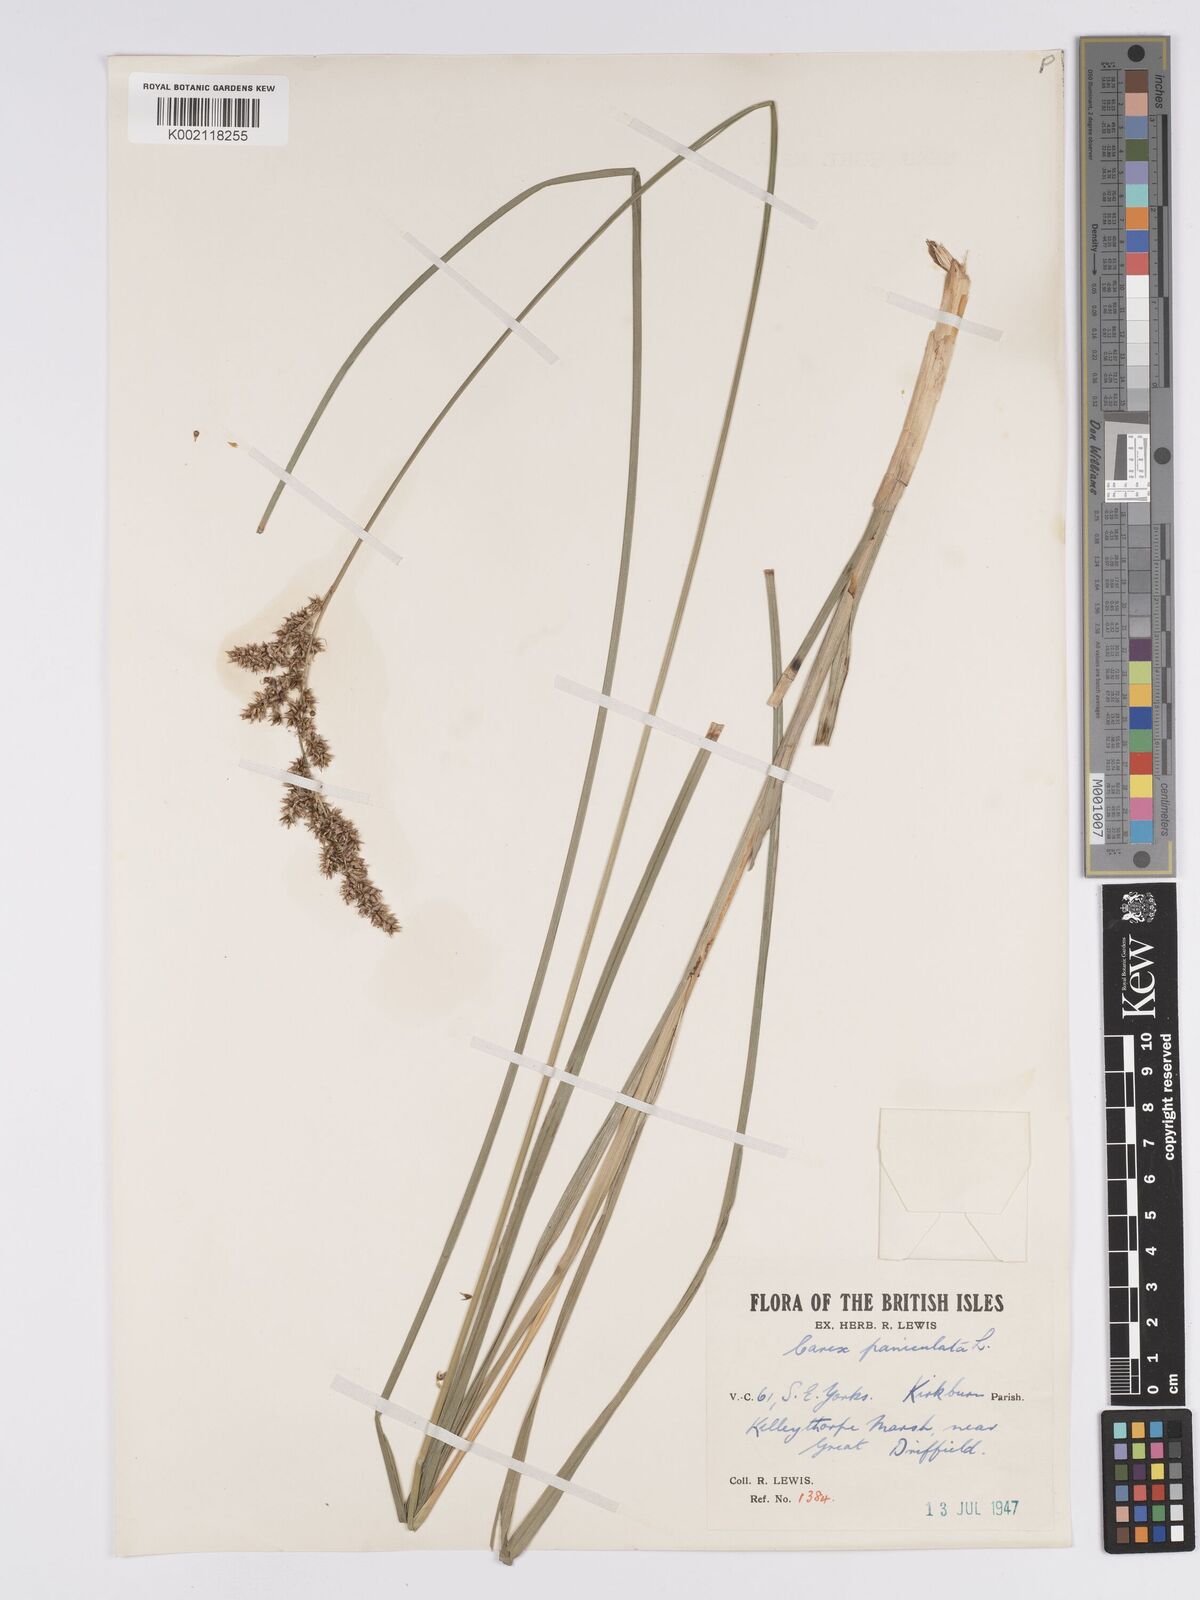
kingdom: Plantae
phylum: Tracheophyta
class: Liliopsida
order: Poales
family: Cyperaceae
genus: Carex
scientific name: Carex paniculata
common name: Greater tussock-sedge
